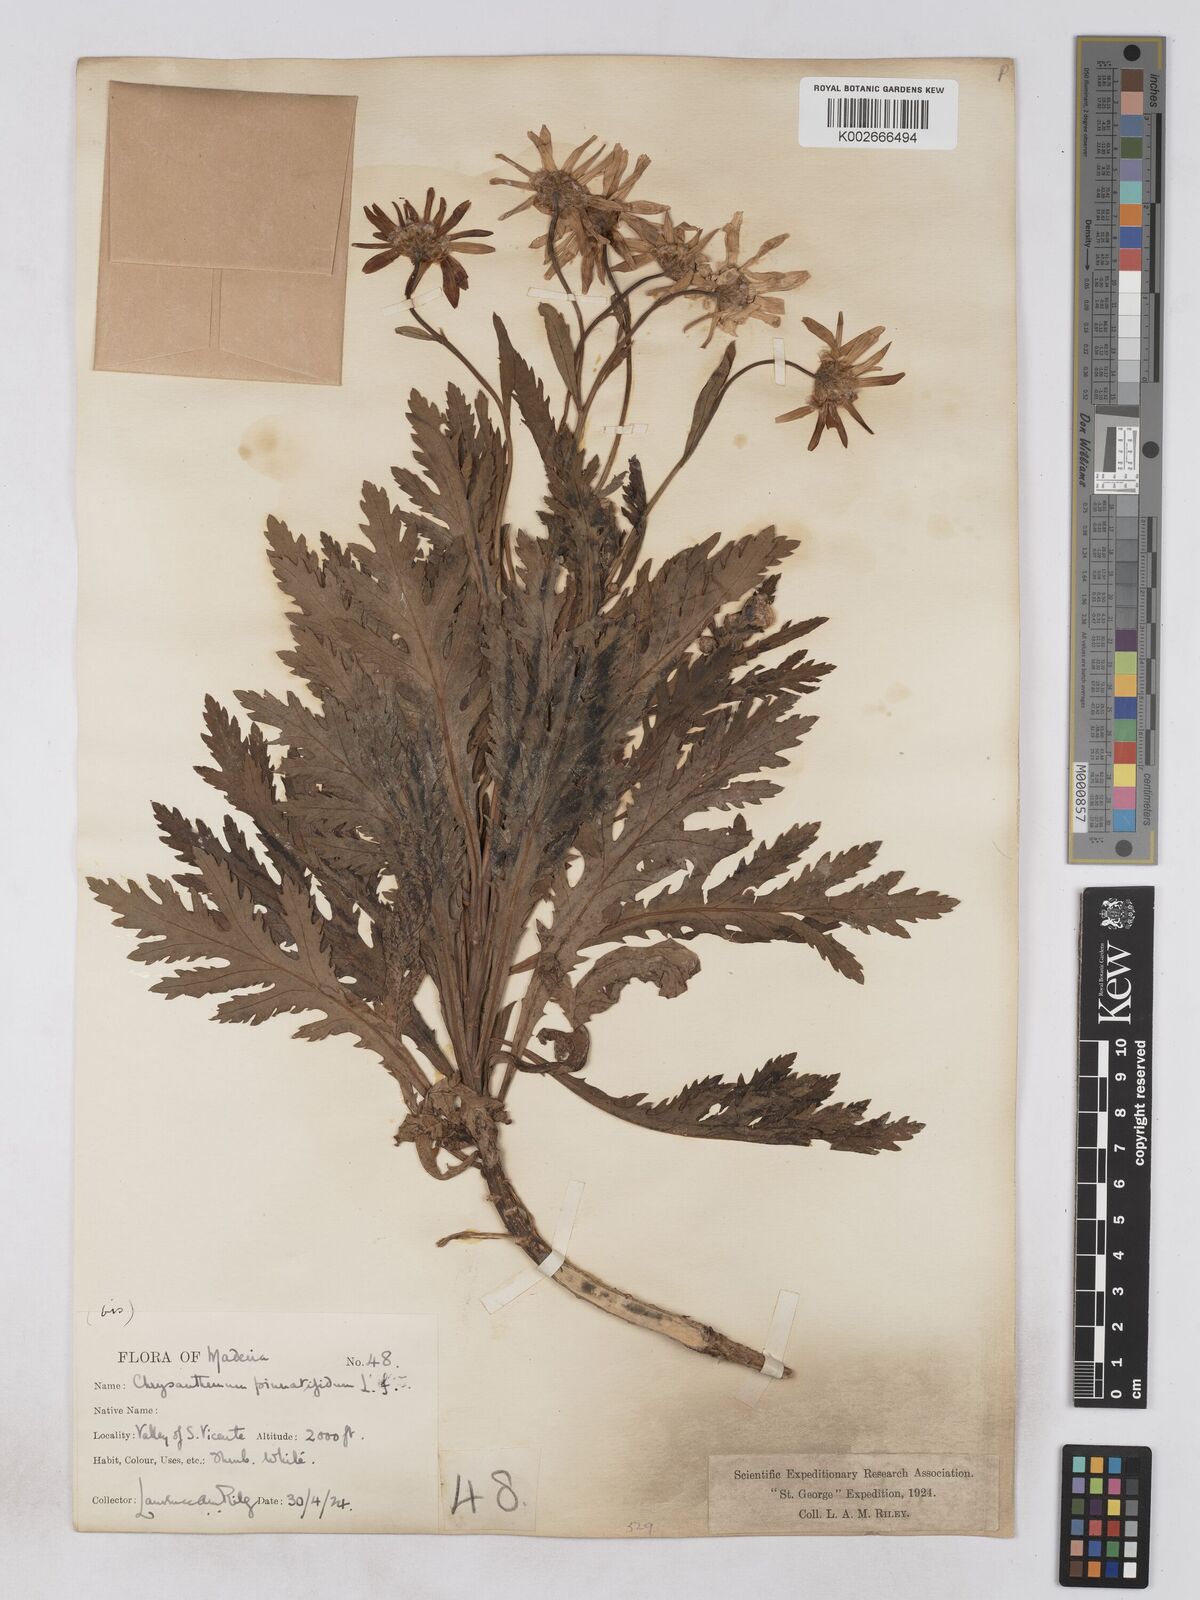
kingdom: Plantae
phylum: Tracheophyta
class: Magnoliopsida
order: Asterales
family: Asteraceae
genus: Argyranthemum
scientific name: Argyranthemum pinnatifidum
